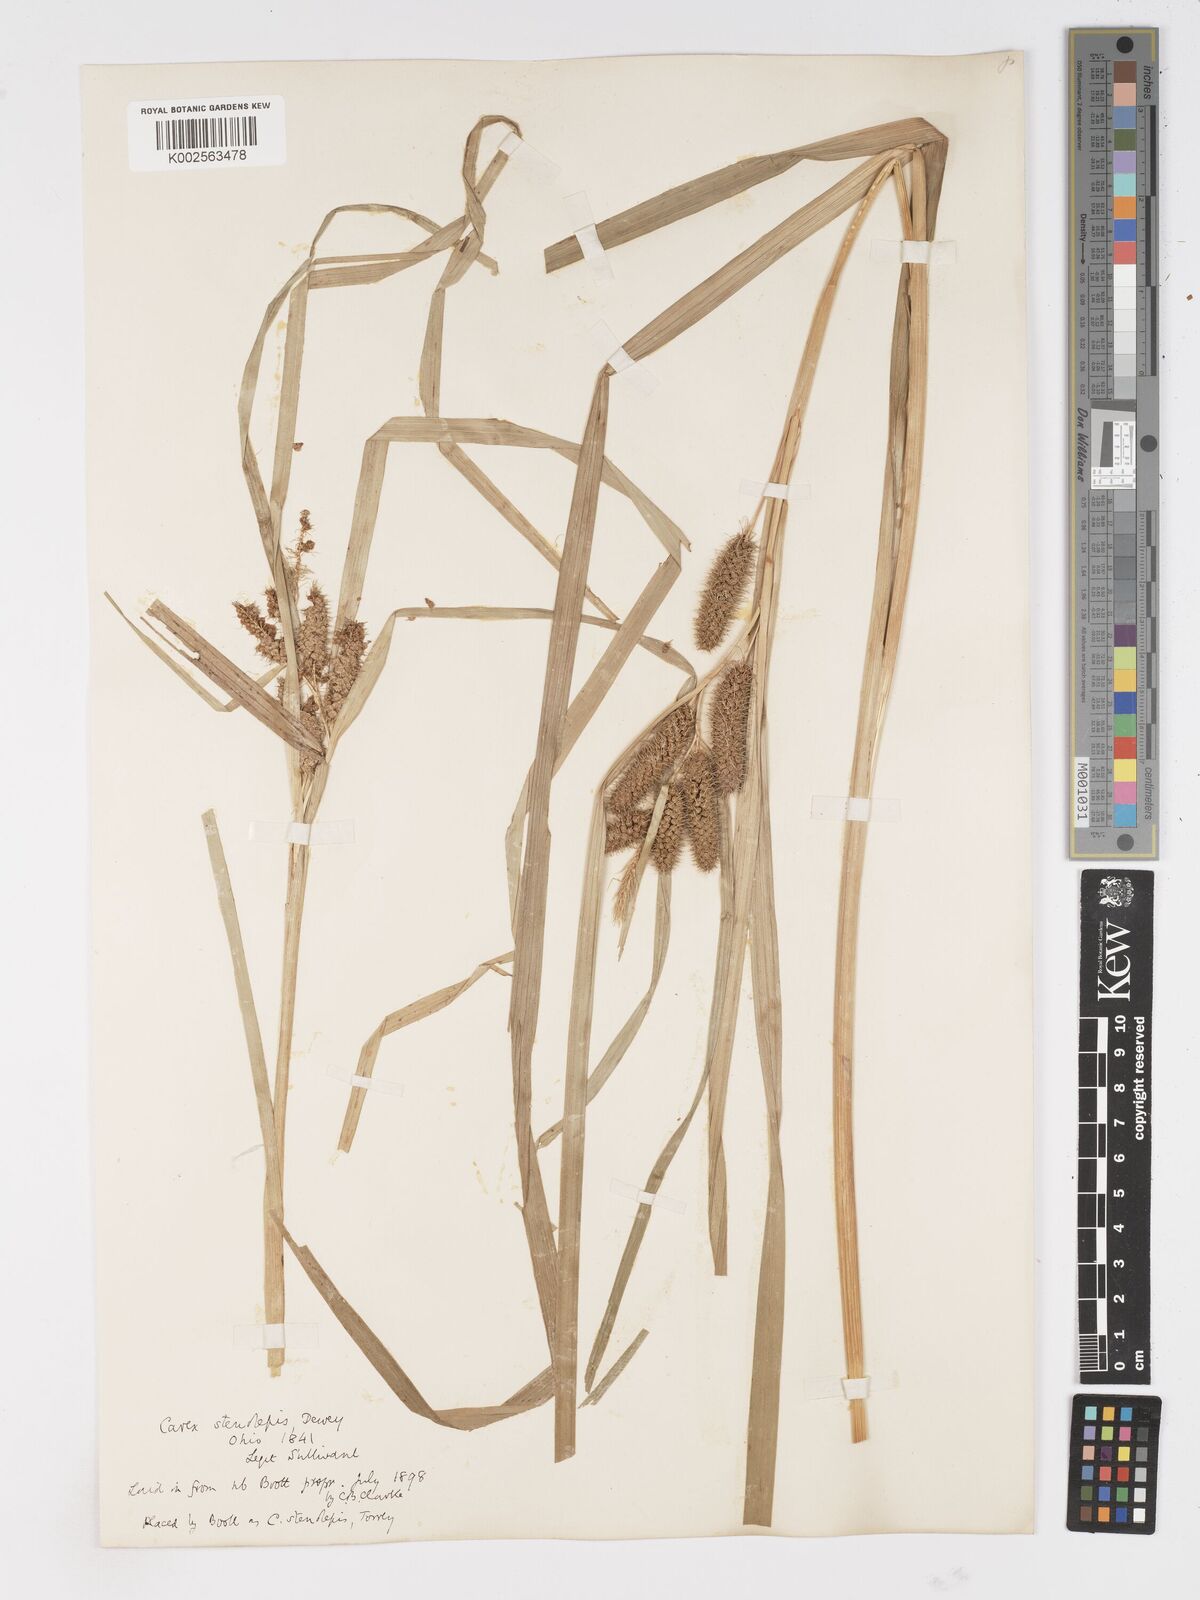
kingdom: Plantae
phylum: Tracheophyta
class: Liliopsida
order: Poales
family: Cyperaceae
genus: Carex
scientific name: Carex frankii
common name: Frank's sedge
